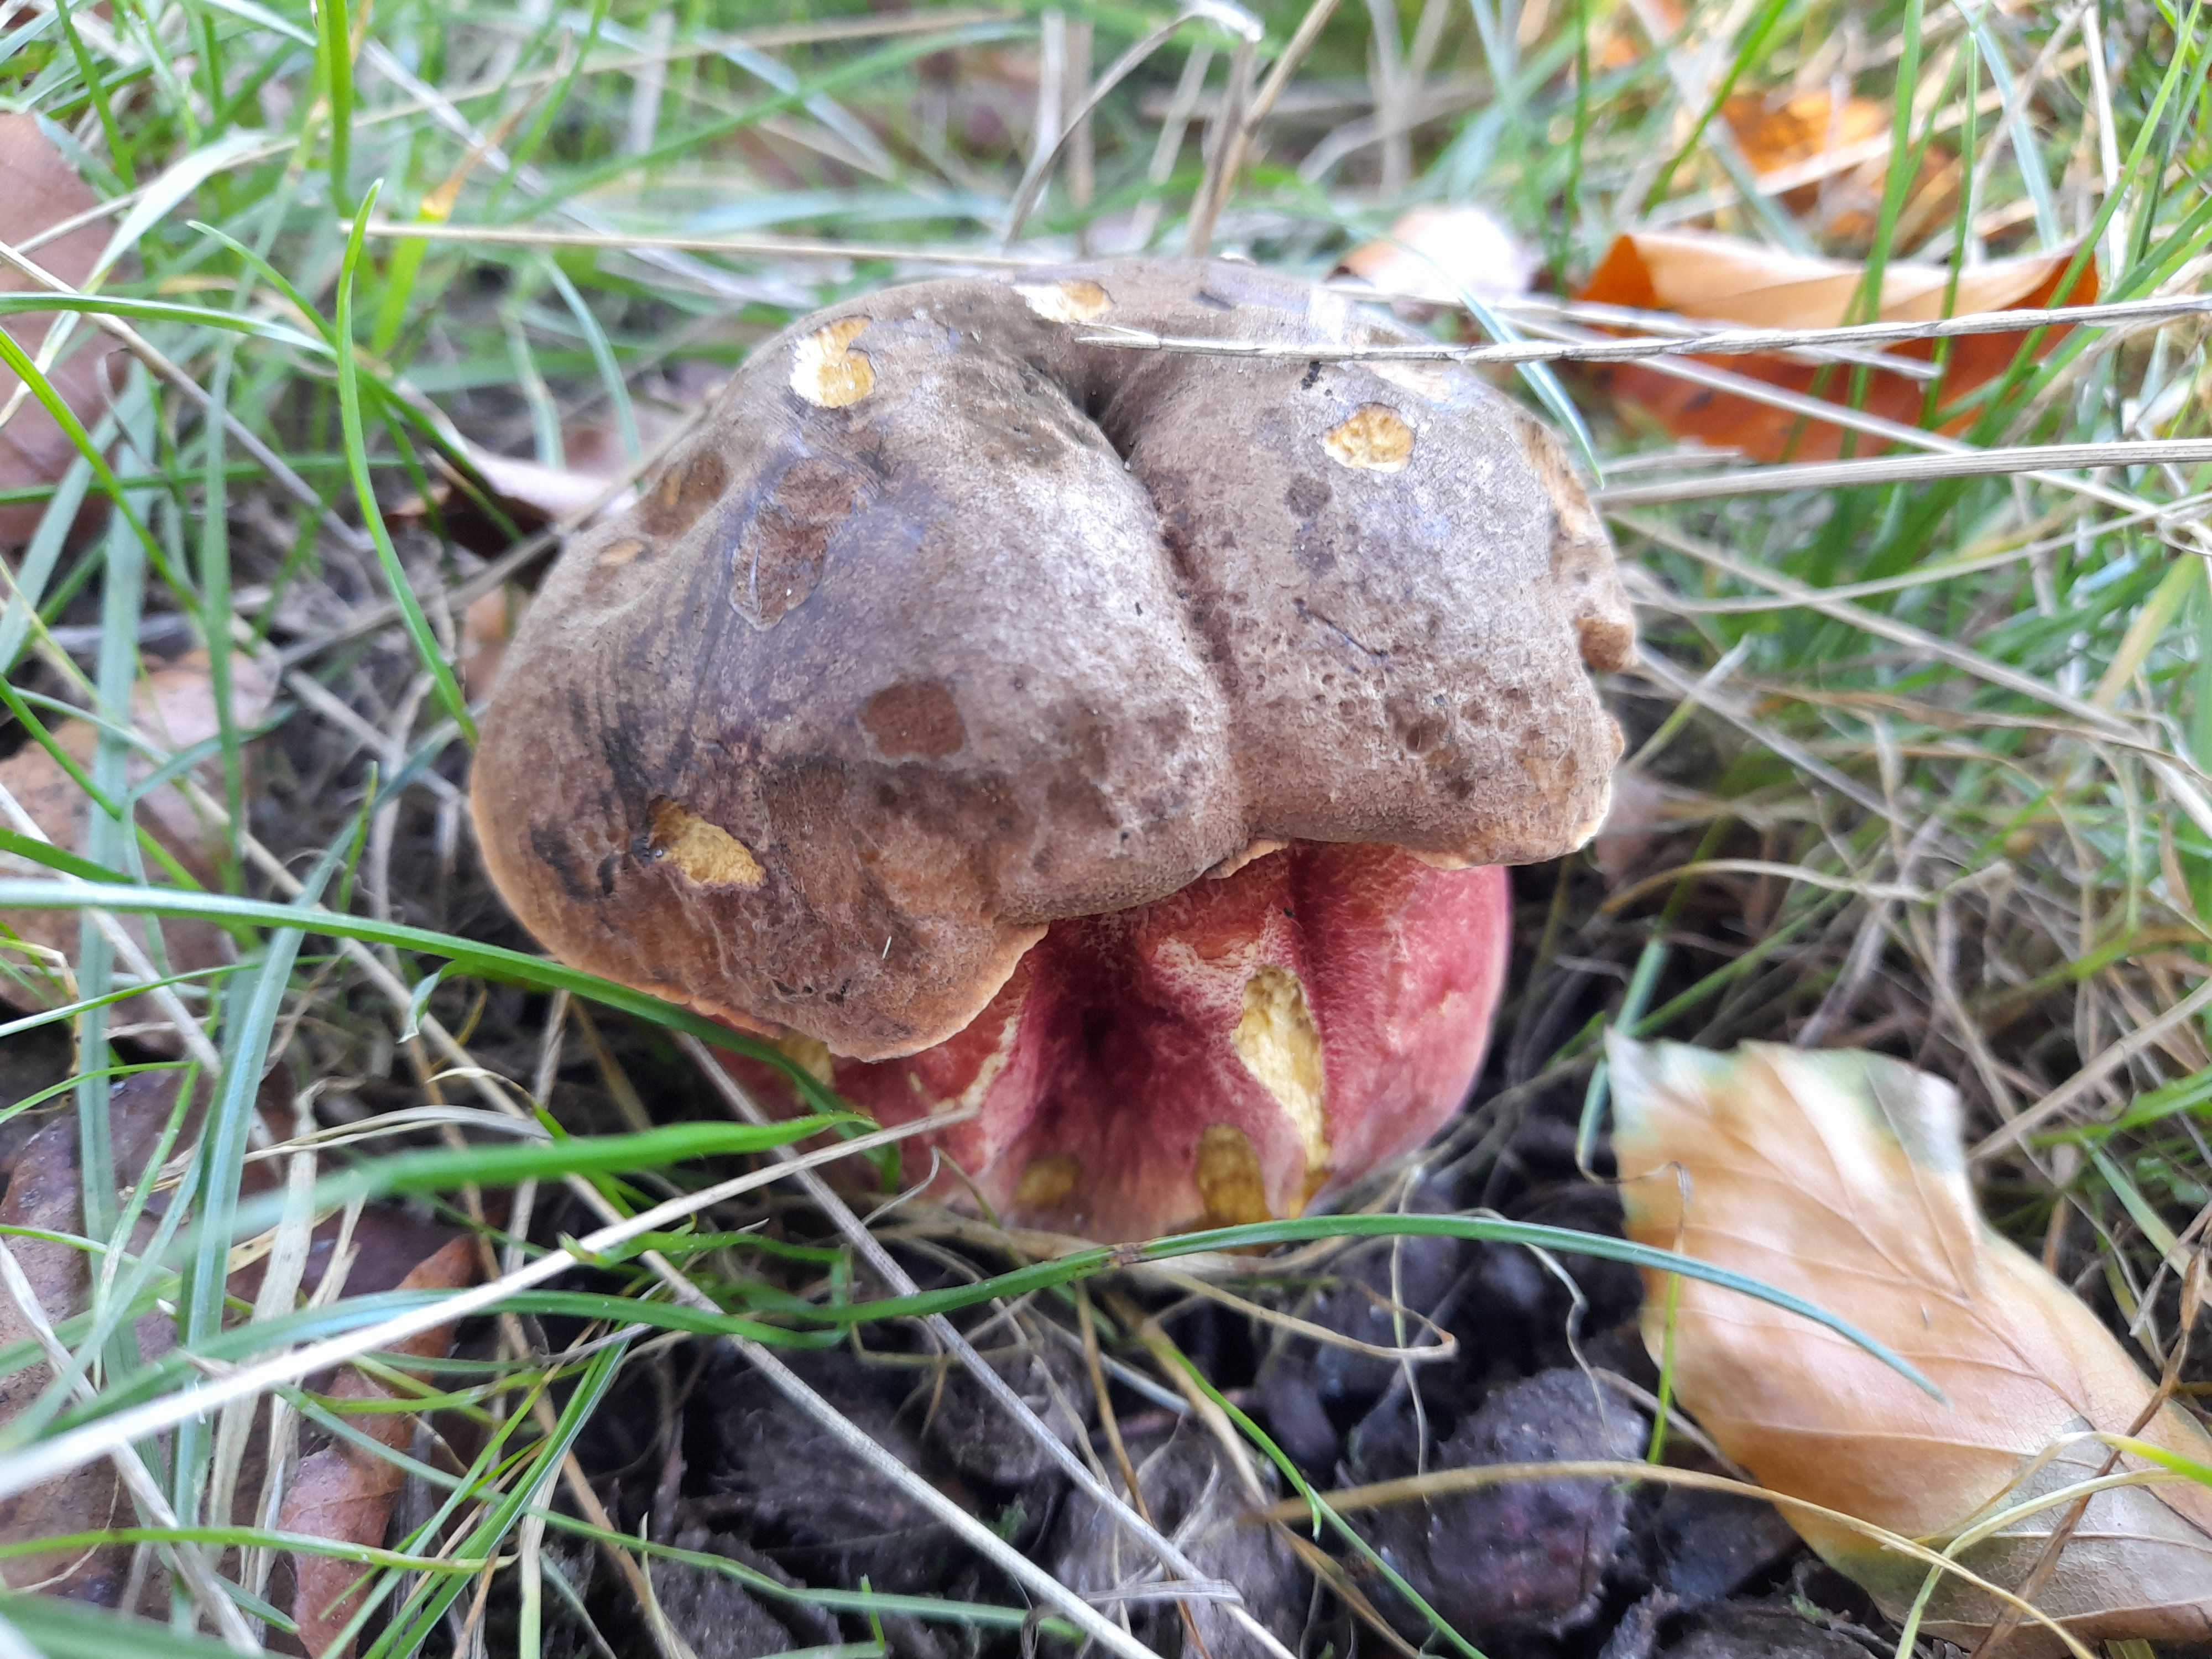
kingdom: Fungi
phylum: Basidiomycota
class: Agaricomycetes
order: Boletales
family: Boletaceae
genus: Neoboletus
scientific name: Neoboletus erythropus
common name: punktstokket indigorørhat
